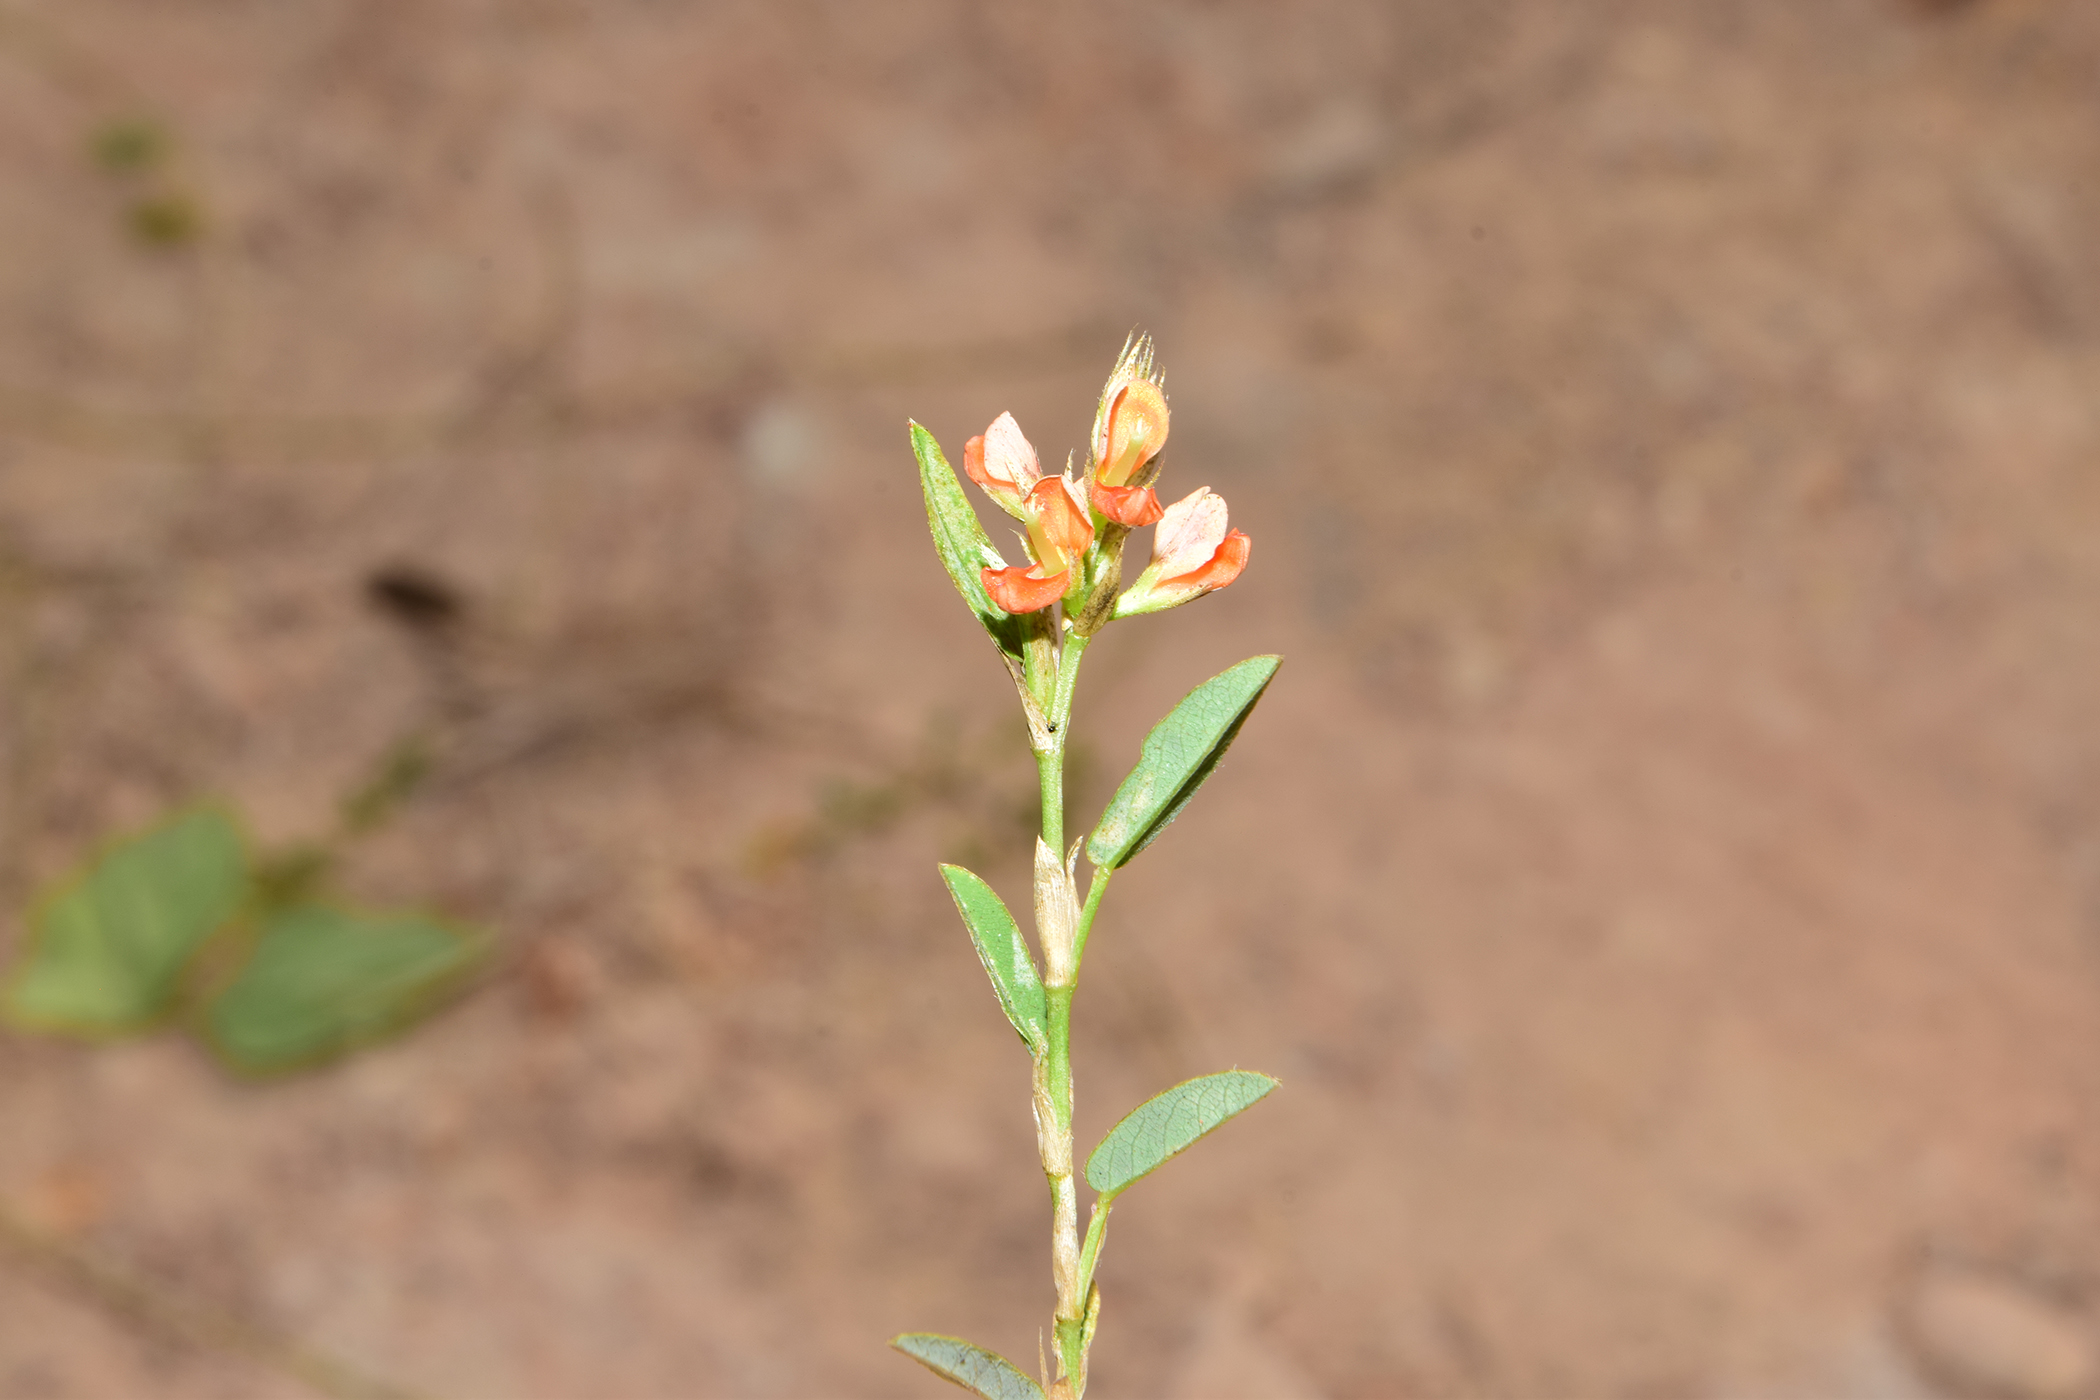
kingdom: Plantae
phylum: Tracheophyta
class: Magnoliopsida
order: Fabales
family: Fabaceae
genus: Alysicarpus
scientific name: Alysicarpus vaginalis
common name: White moneywort
